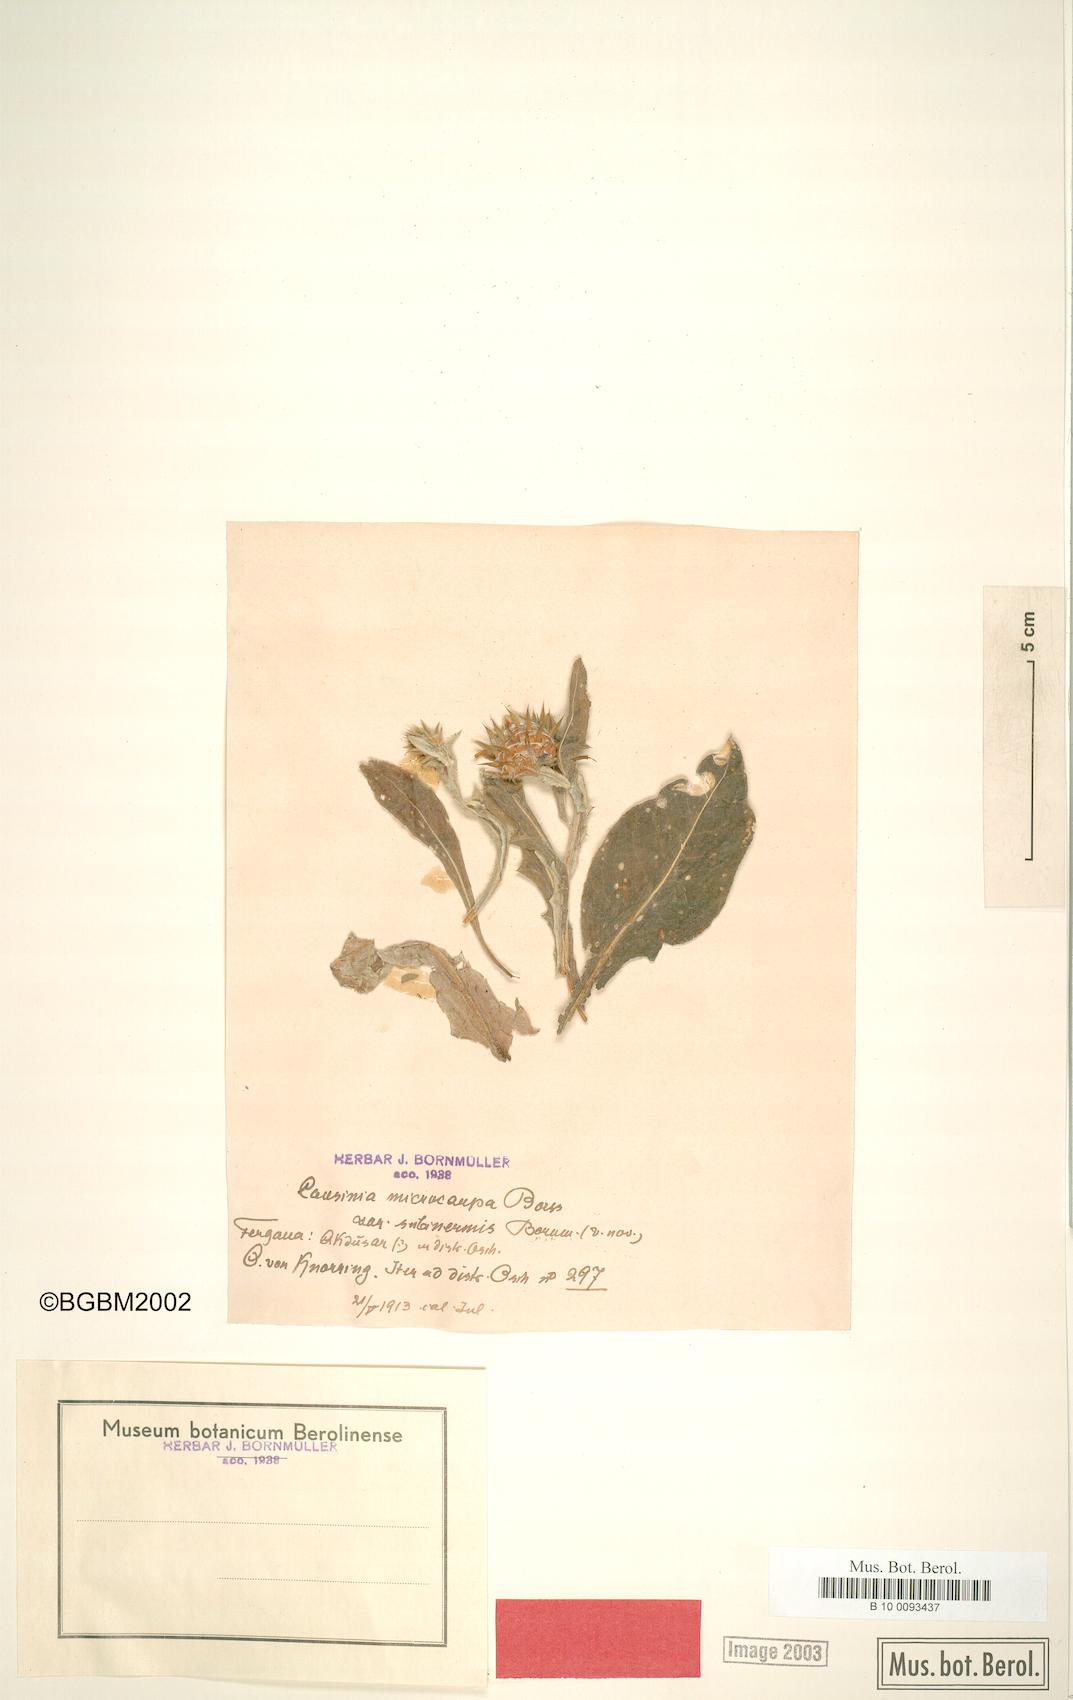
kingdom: Plantae
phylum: Tracheophyta
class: Magnoliopsida
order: Asterales
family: Asteraceae
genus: Cousinia
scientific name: Cousinia microcarpa
